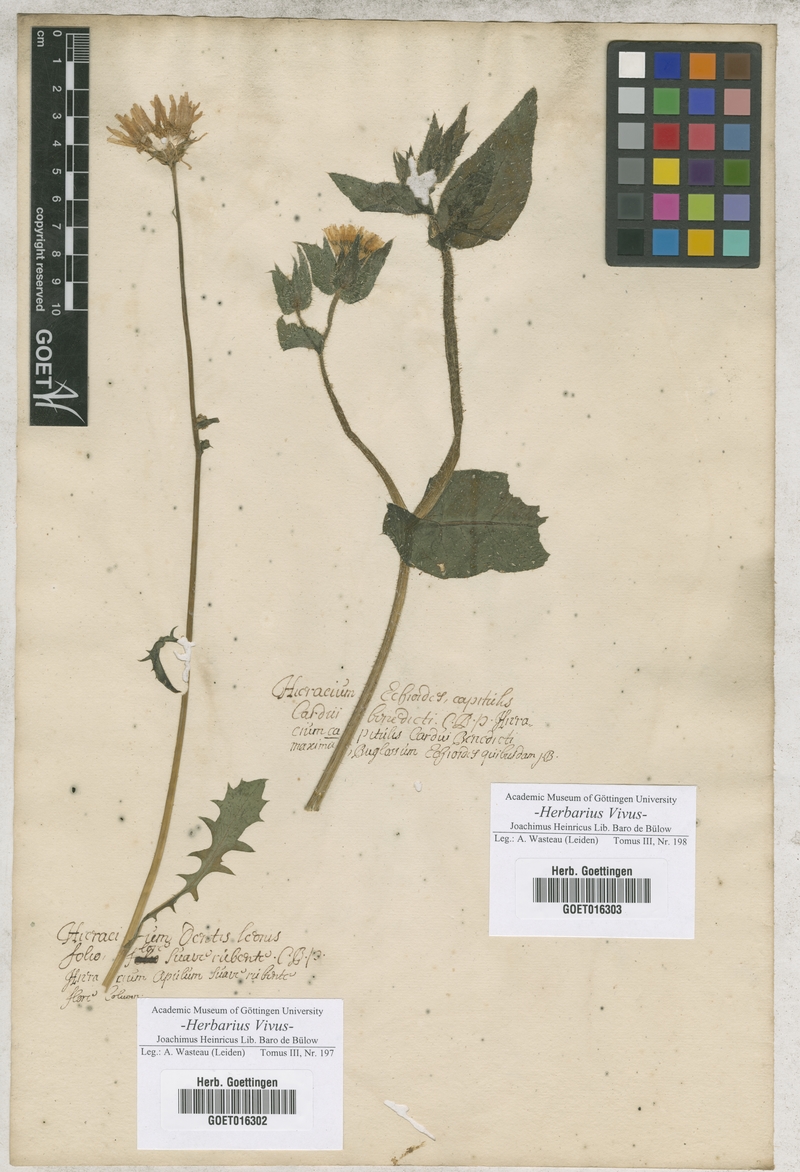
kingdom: Plantae
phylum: Tracheophyta
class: Magnoliopsida
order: Asterales
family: Asteraceae
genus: Crepis
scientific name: Crepis rubra
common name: Pink hawk's-beard
